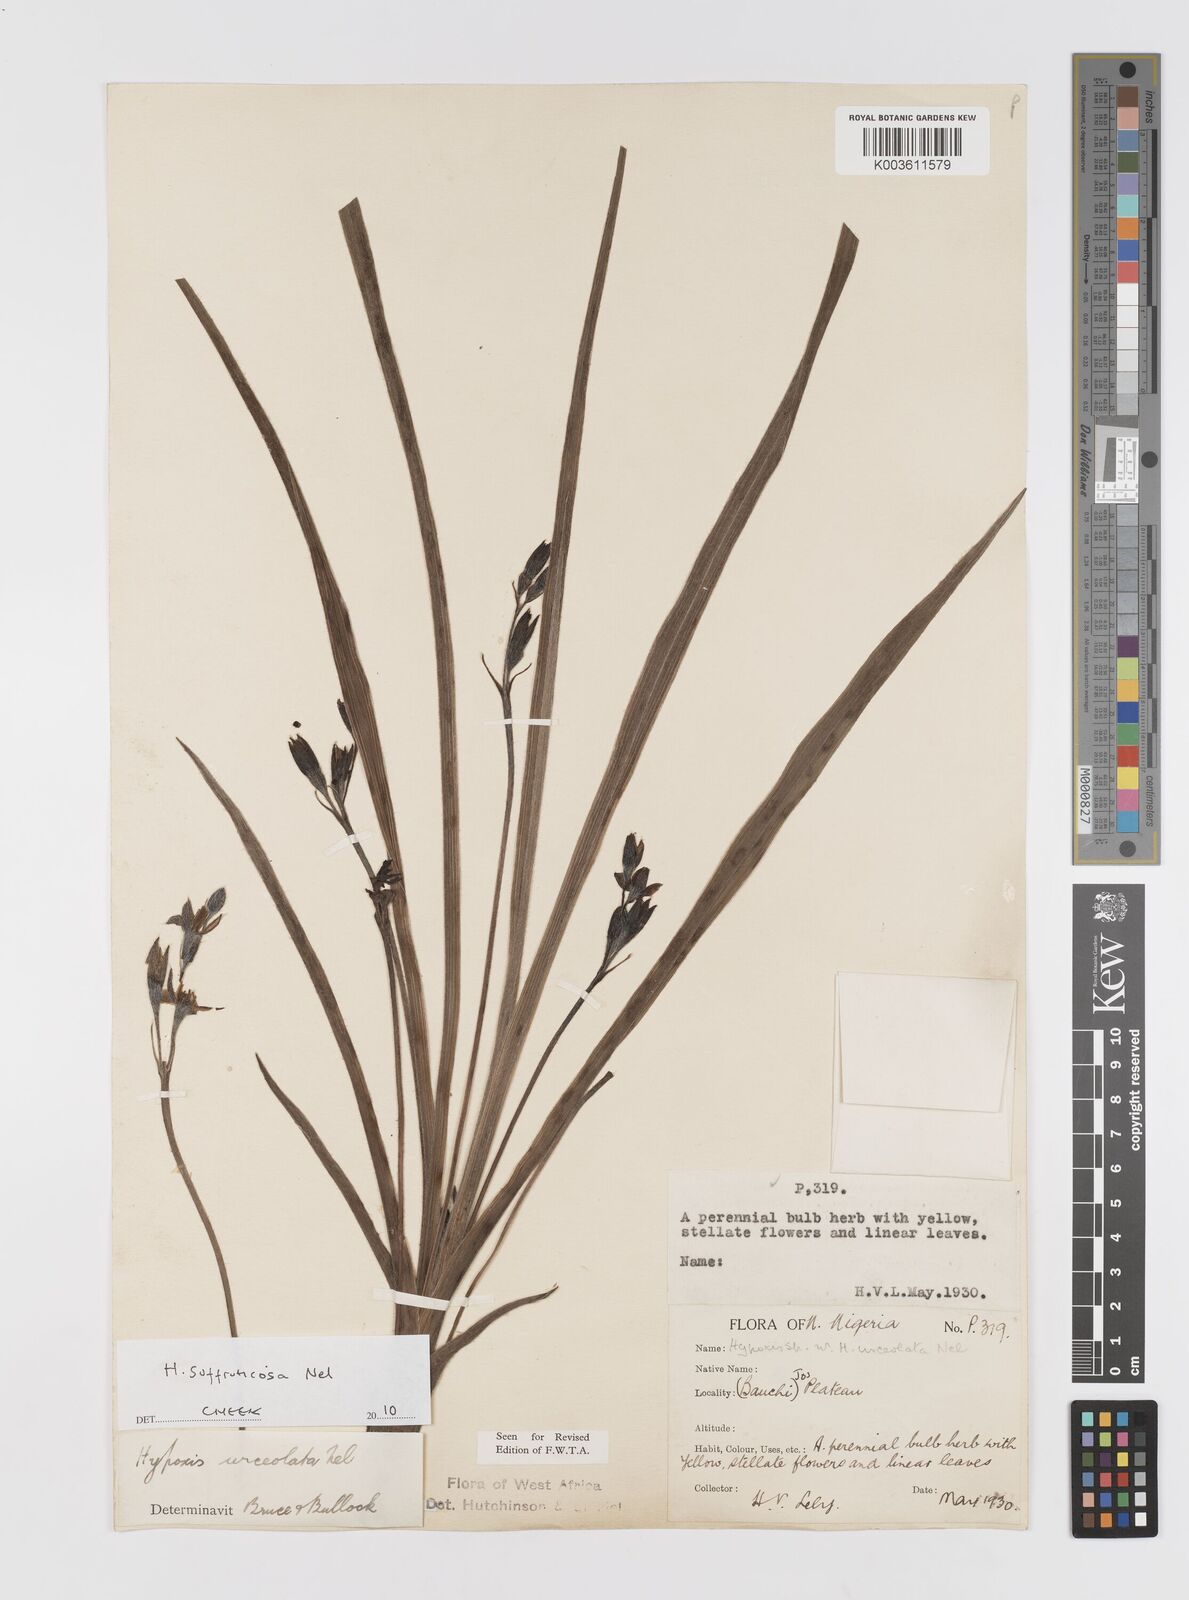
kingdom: Plantae
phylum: Tracheophyta
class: Liliopsida
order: Asparagales
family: Hypoxidaceae
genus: Hypoxis
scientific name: Hypoxis suffruticosa
